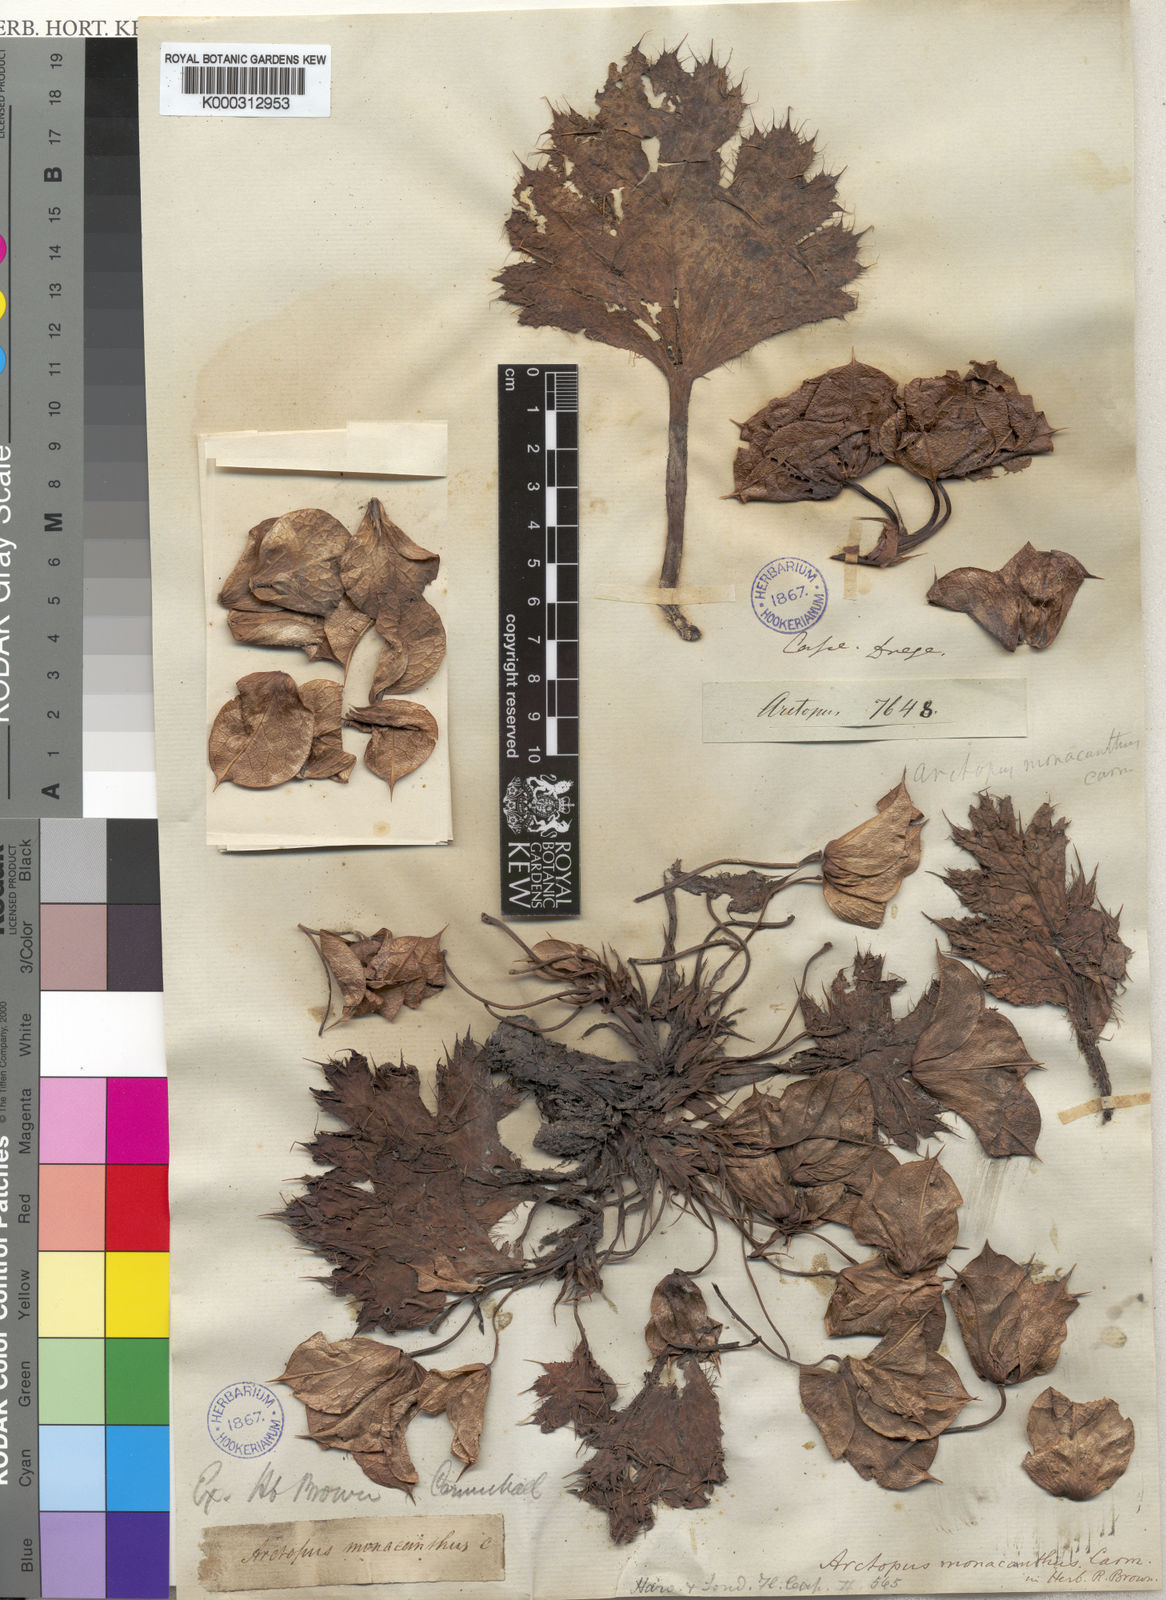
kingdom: Plantae
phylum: Tracheophyta
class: Magnoliopsida
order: Apiales
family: Apiaceae
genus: Arctopus
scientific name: Arctopus monacanthus
